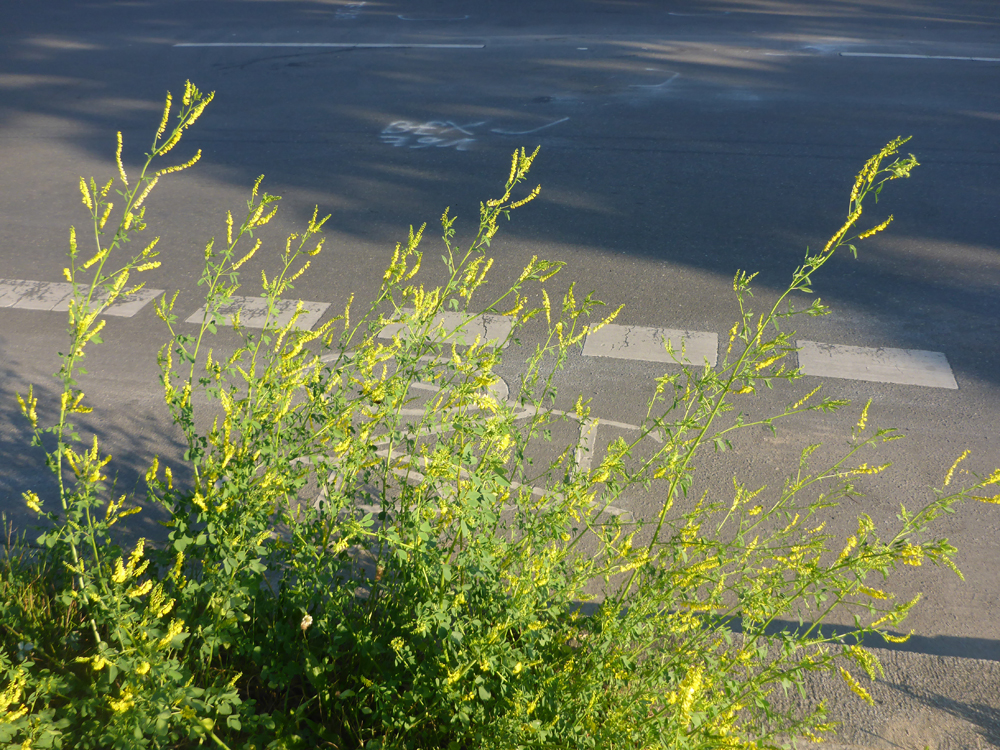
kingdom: Plantae
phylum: Tracheophyta
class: Magnoliopsida
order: Fabales
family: Fabaceae
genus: Melilotus
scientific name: Melilotus officinalis
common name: Sweetclover
